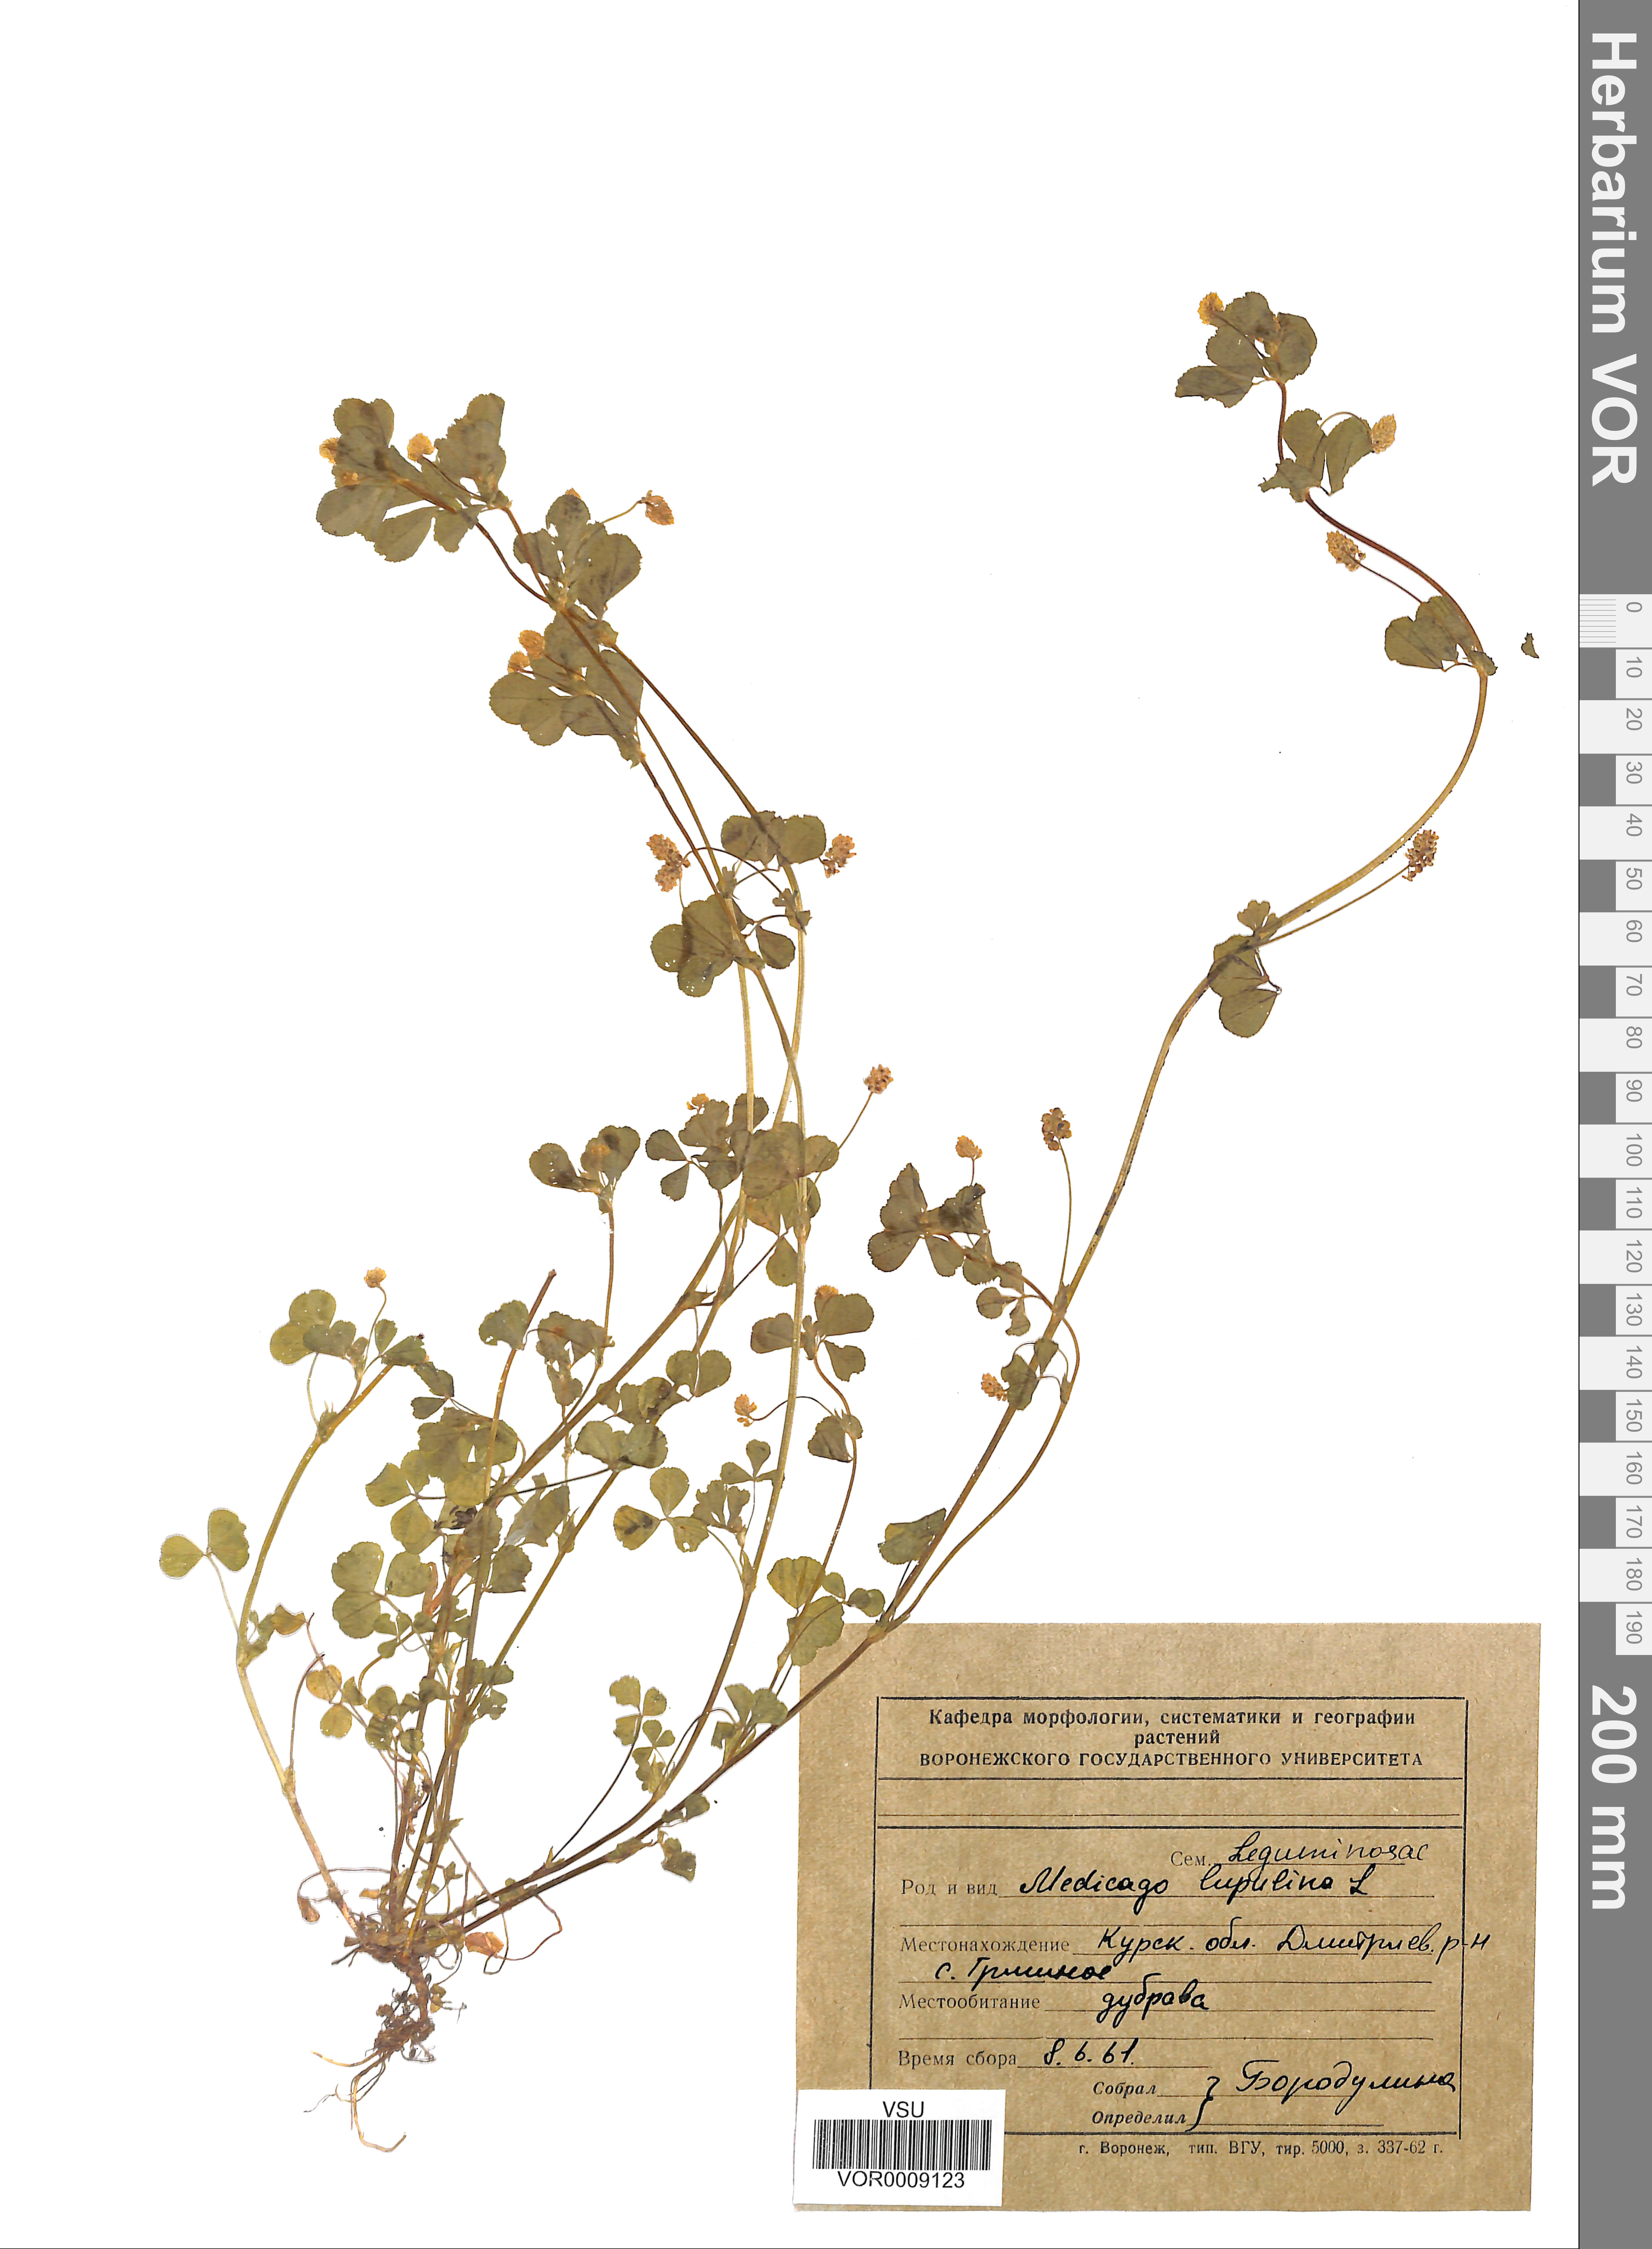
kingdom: Plantae
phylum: Tracheophyta
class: Magnoliopsida
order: Fabales
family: Fabaceae
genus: Medicago
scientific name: Medicago lupulina
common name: Black medick
